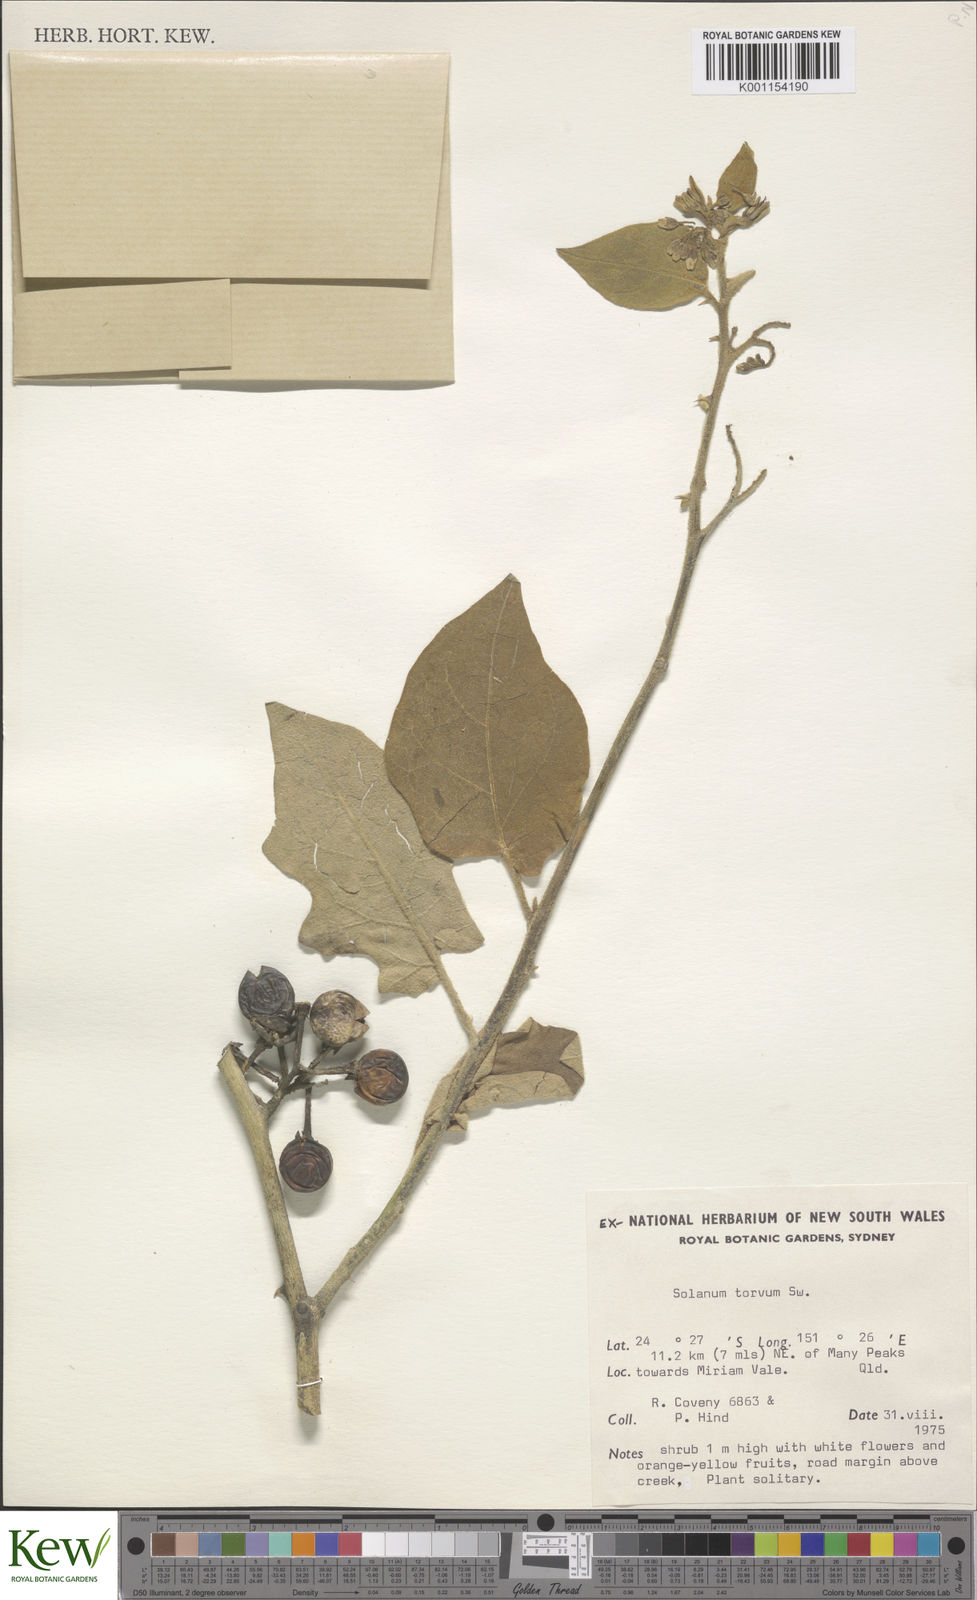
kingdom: Plantae
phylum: Tracheophyta
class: Magnoliopsida
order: Solanales
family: Solanaceae
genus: Solanum
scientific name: Solanum torvum
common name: Turkey berry
